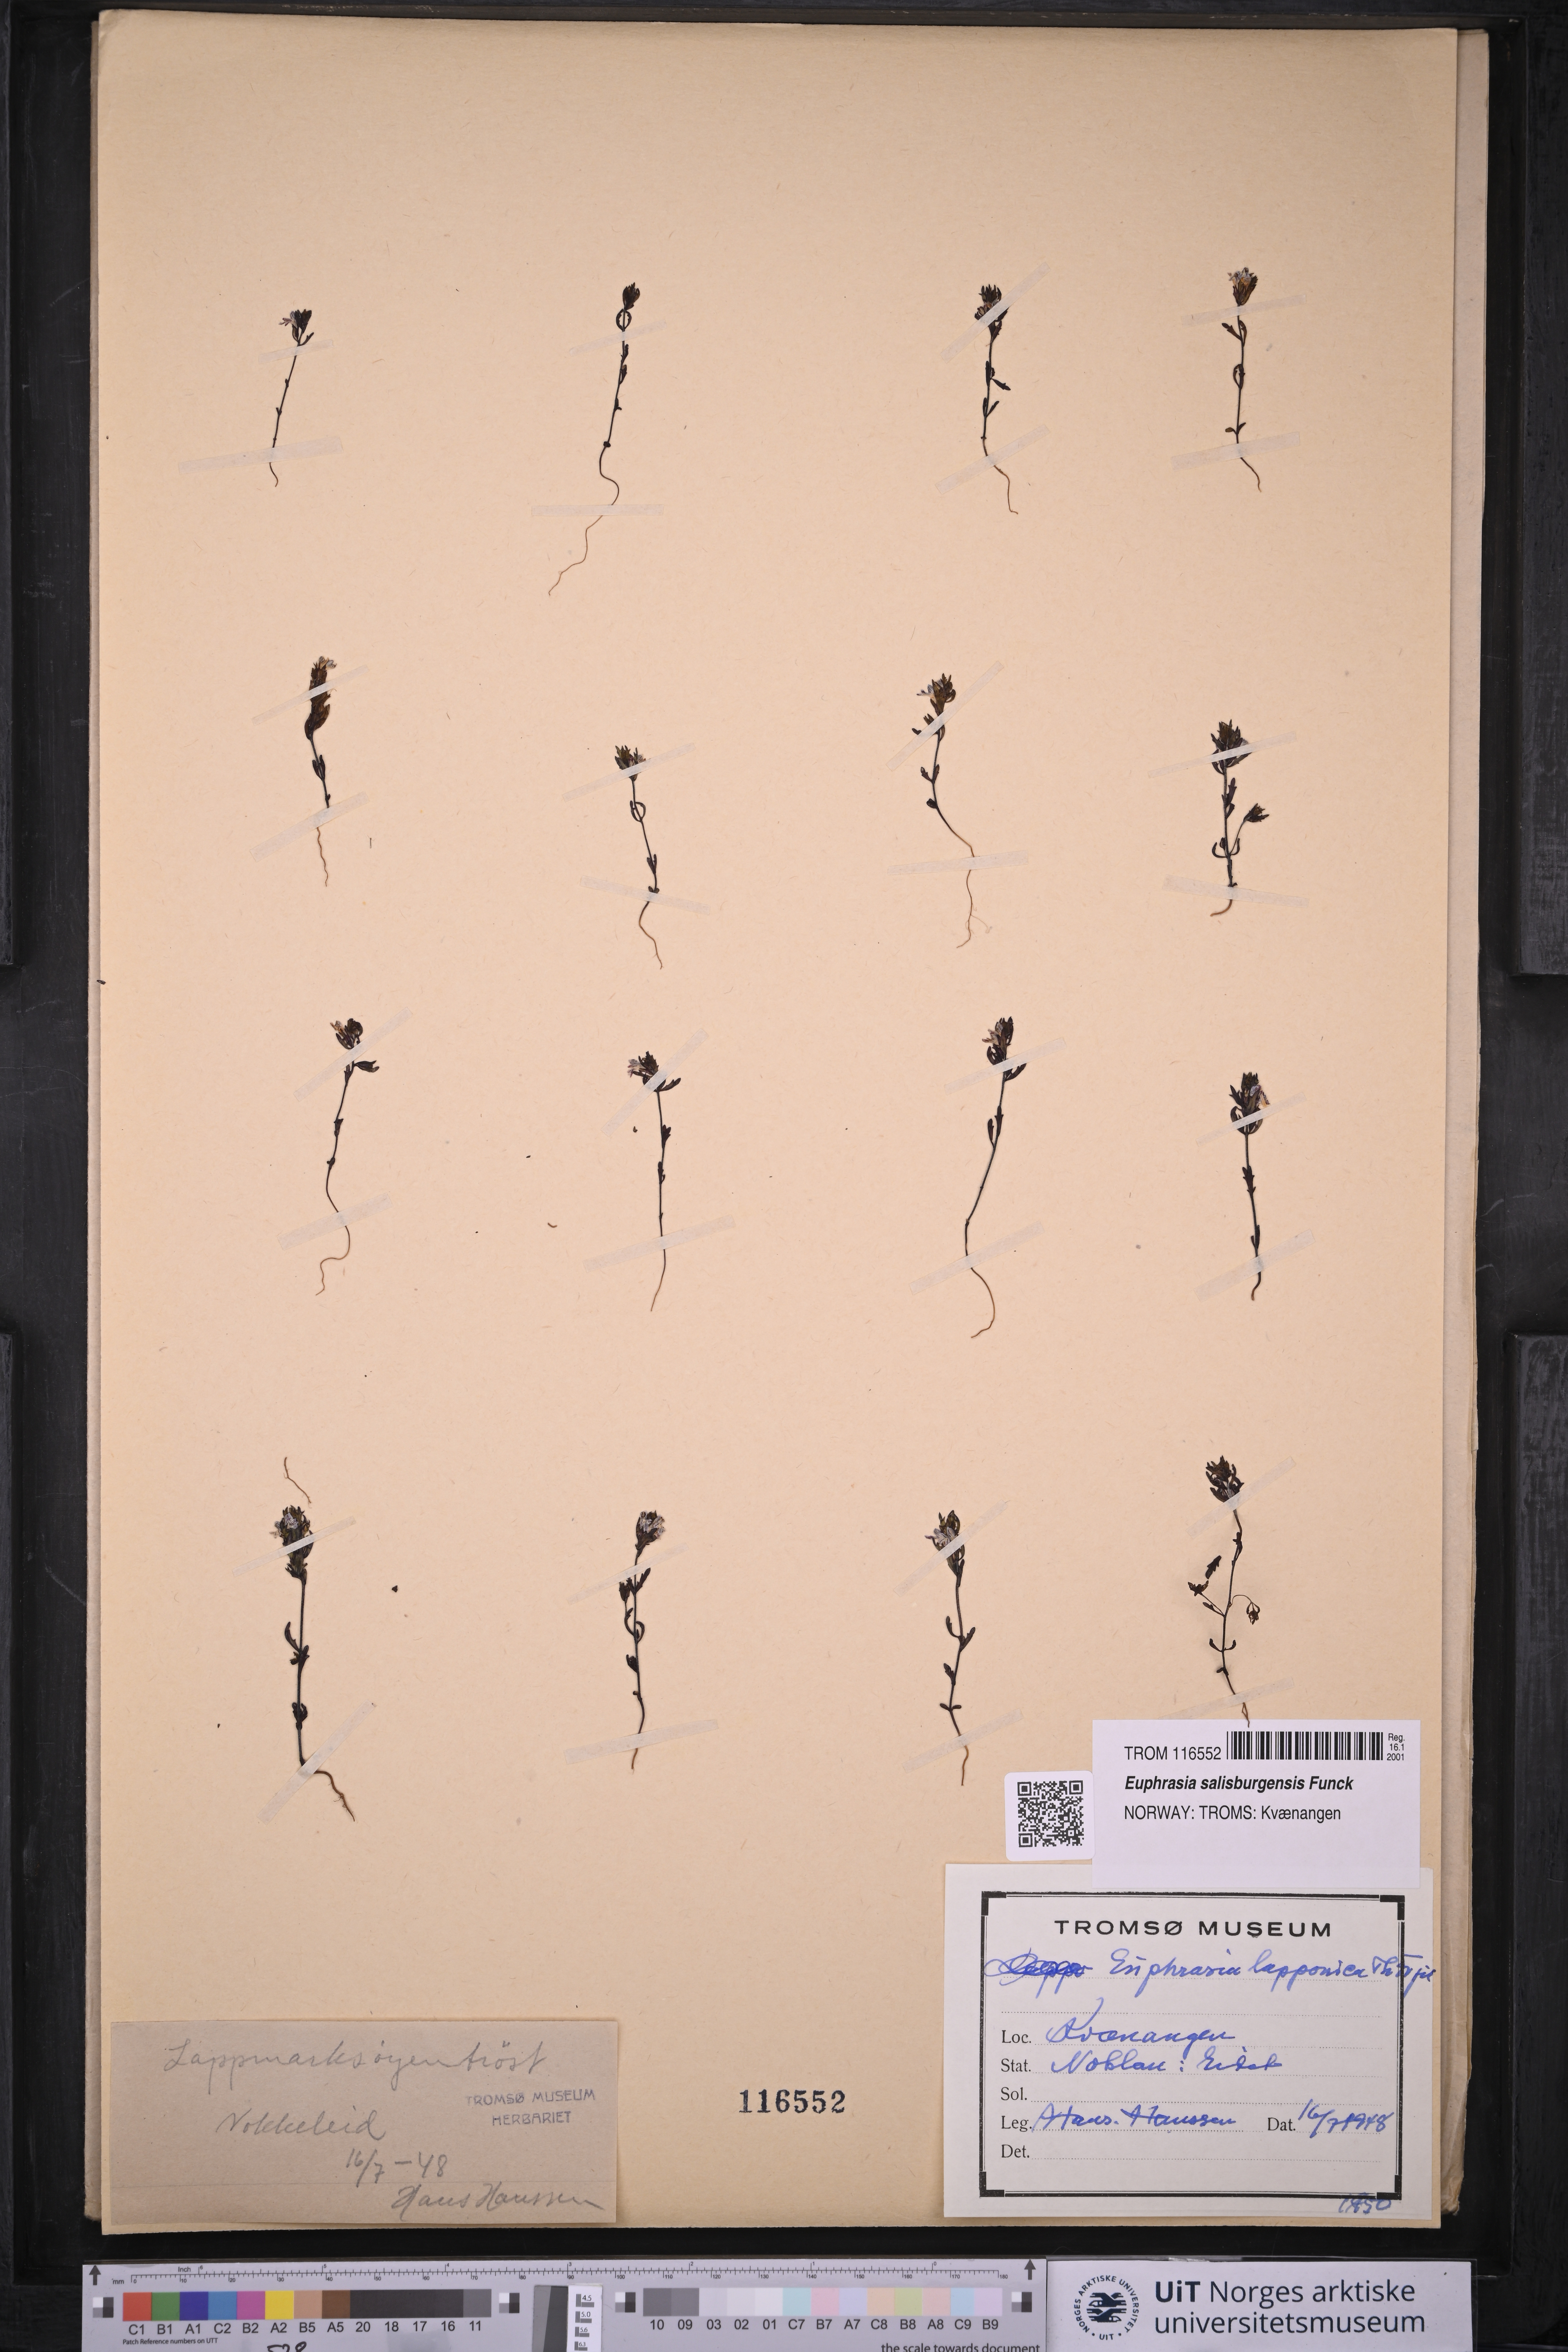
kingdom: Plantae
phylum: Tracheophyta
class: Magnoliopsida
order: Lamiales
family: Orobanchaceae
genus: Euphrasia
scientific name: Euphrasia salisburgensis
